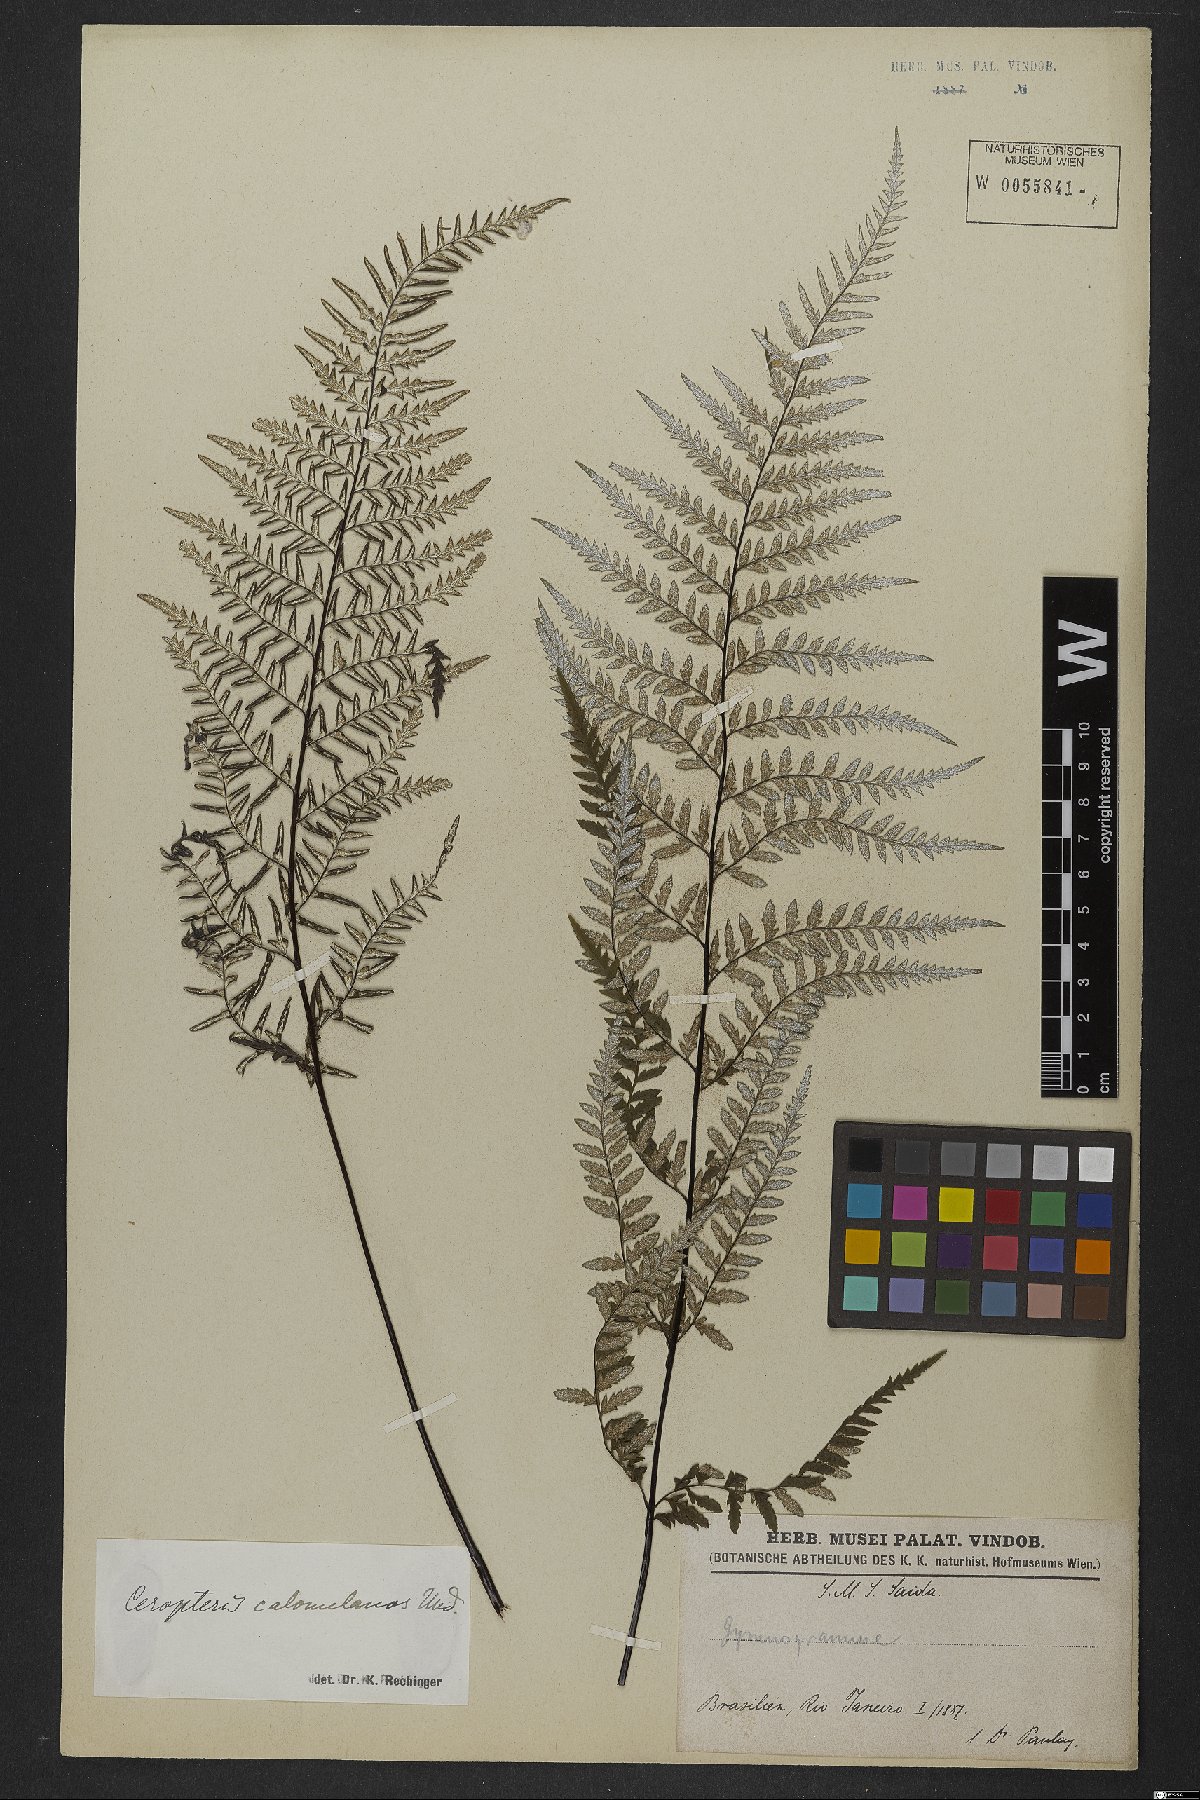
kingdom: Plantae
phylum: Tracheophyta
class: Polypodiopsida
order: Polypodiales
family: Pteridaceae
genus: Pityrogramma
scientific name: Pityrogramma calomelanos
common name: Dixie silverback fern
